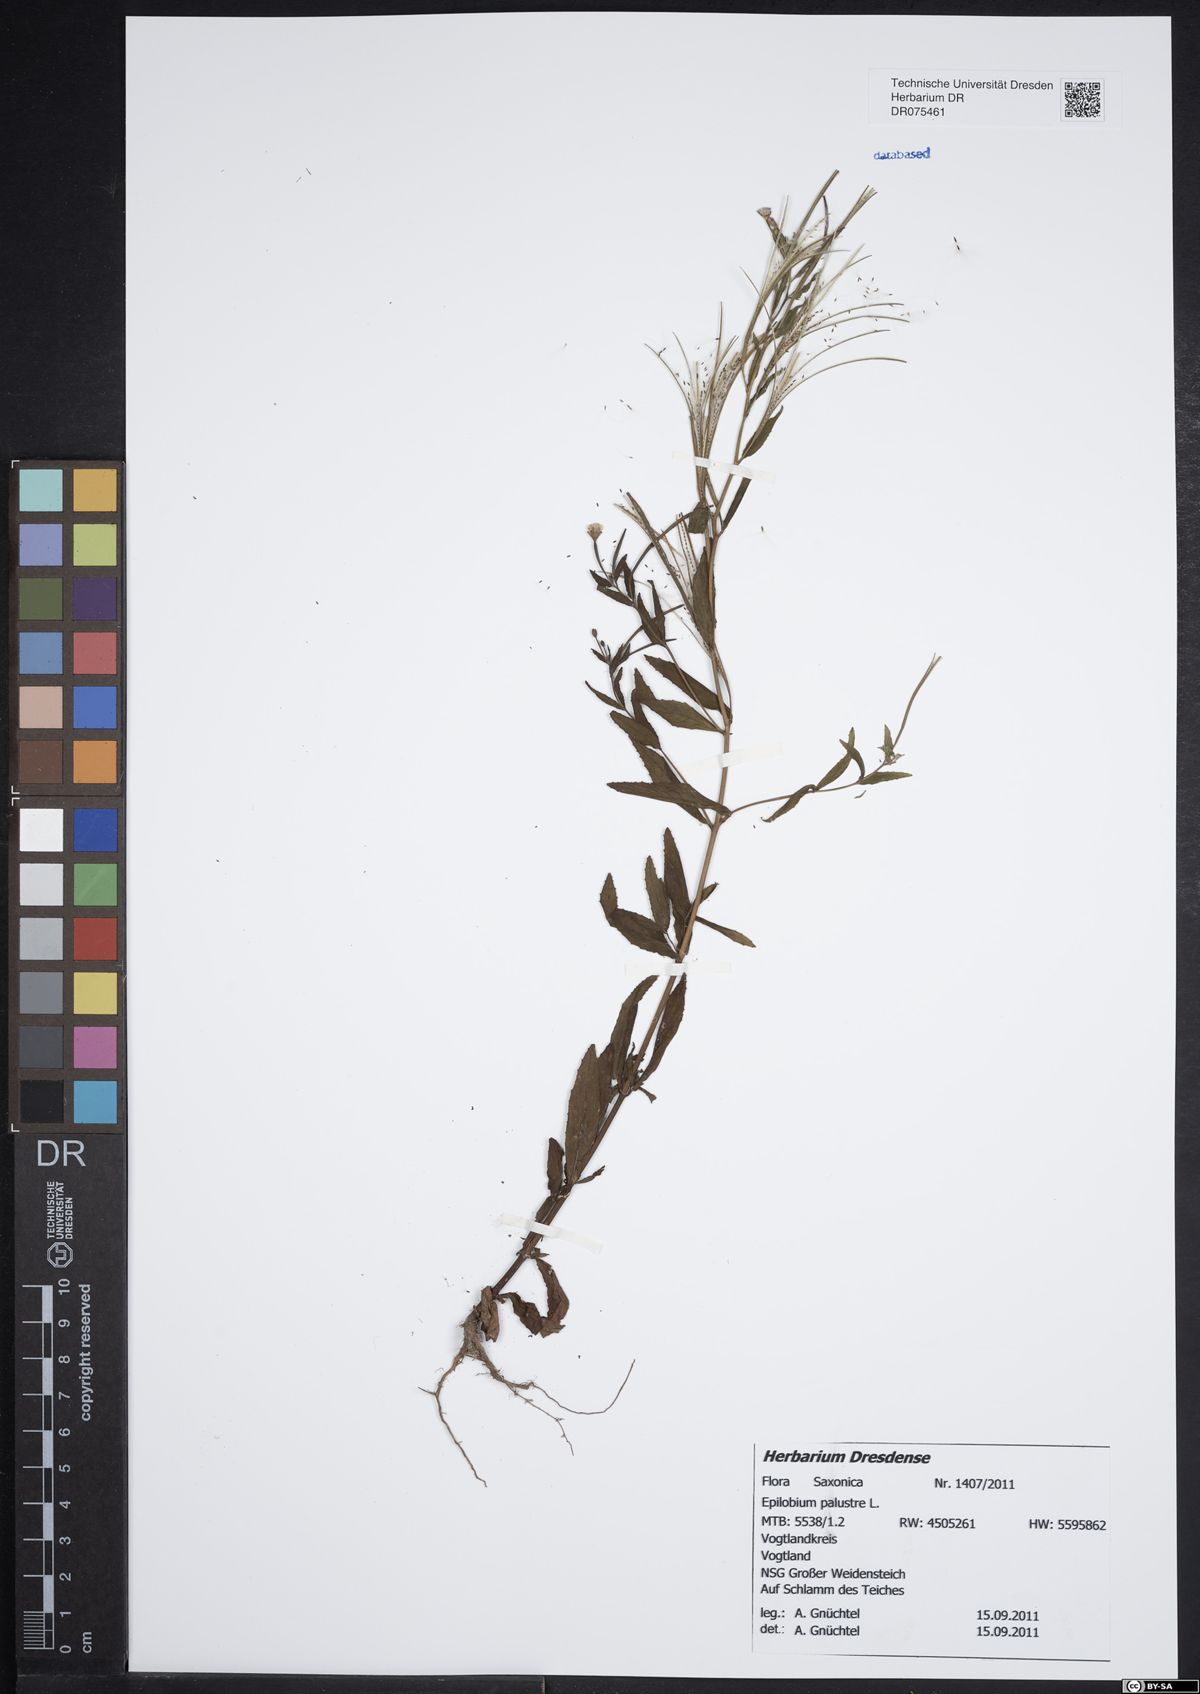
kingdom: Plantae
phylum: Tracheophyta
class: Magnoliopsida
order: Myrtales
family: Onagraceae
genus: Epilobium
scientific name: Epilobium palustre
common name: Marsh willowherb
